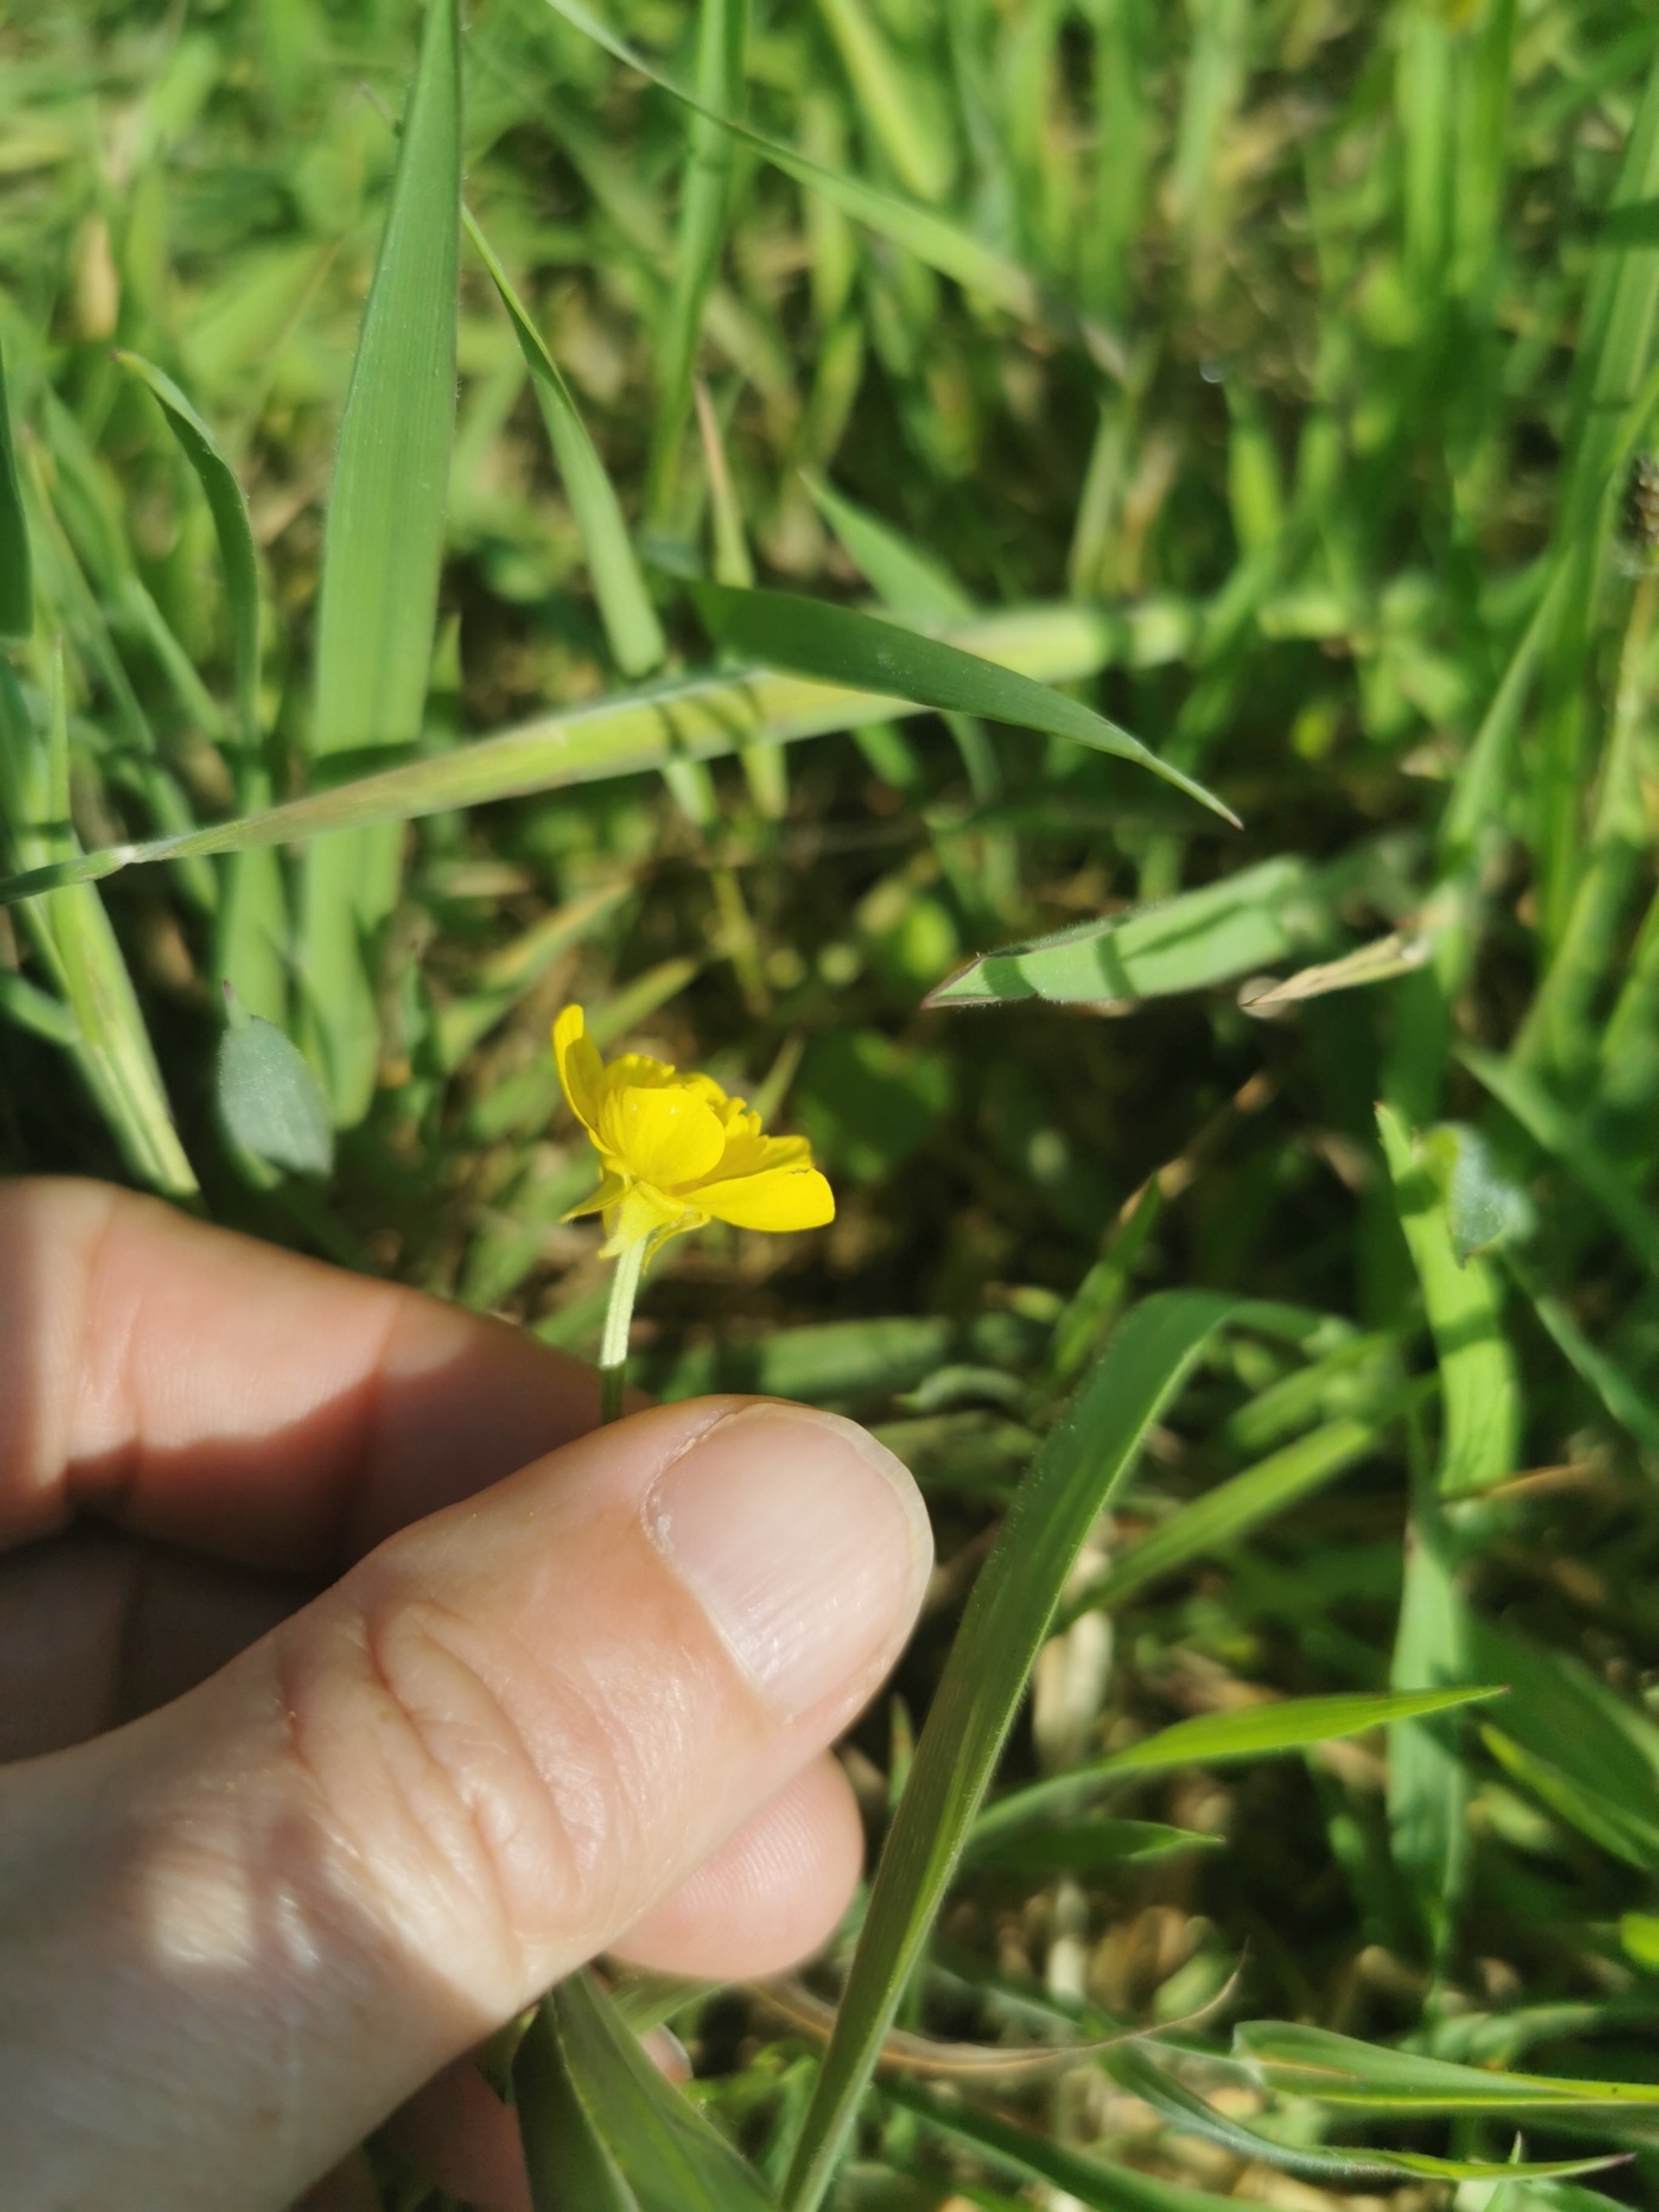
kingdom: Plantae
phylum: Tracheophyta
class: Magnoliopsida
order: Ranunculales
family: Ranunculaceae
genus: Ranunculus
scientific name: Ranunculus bulbosus
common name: Knold-ranunkel
